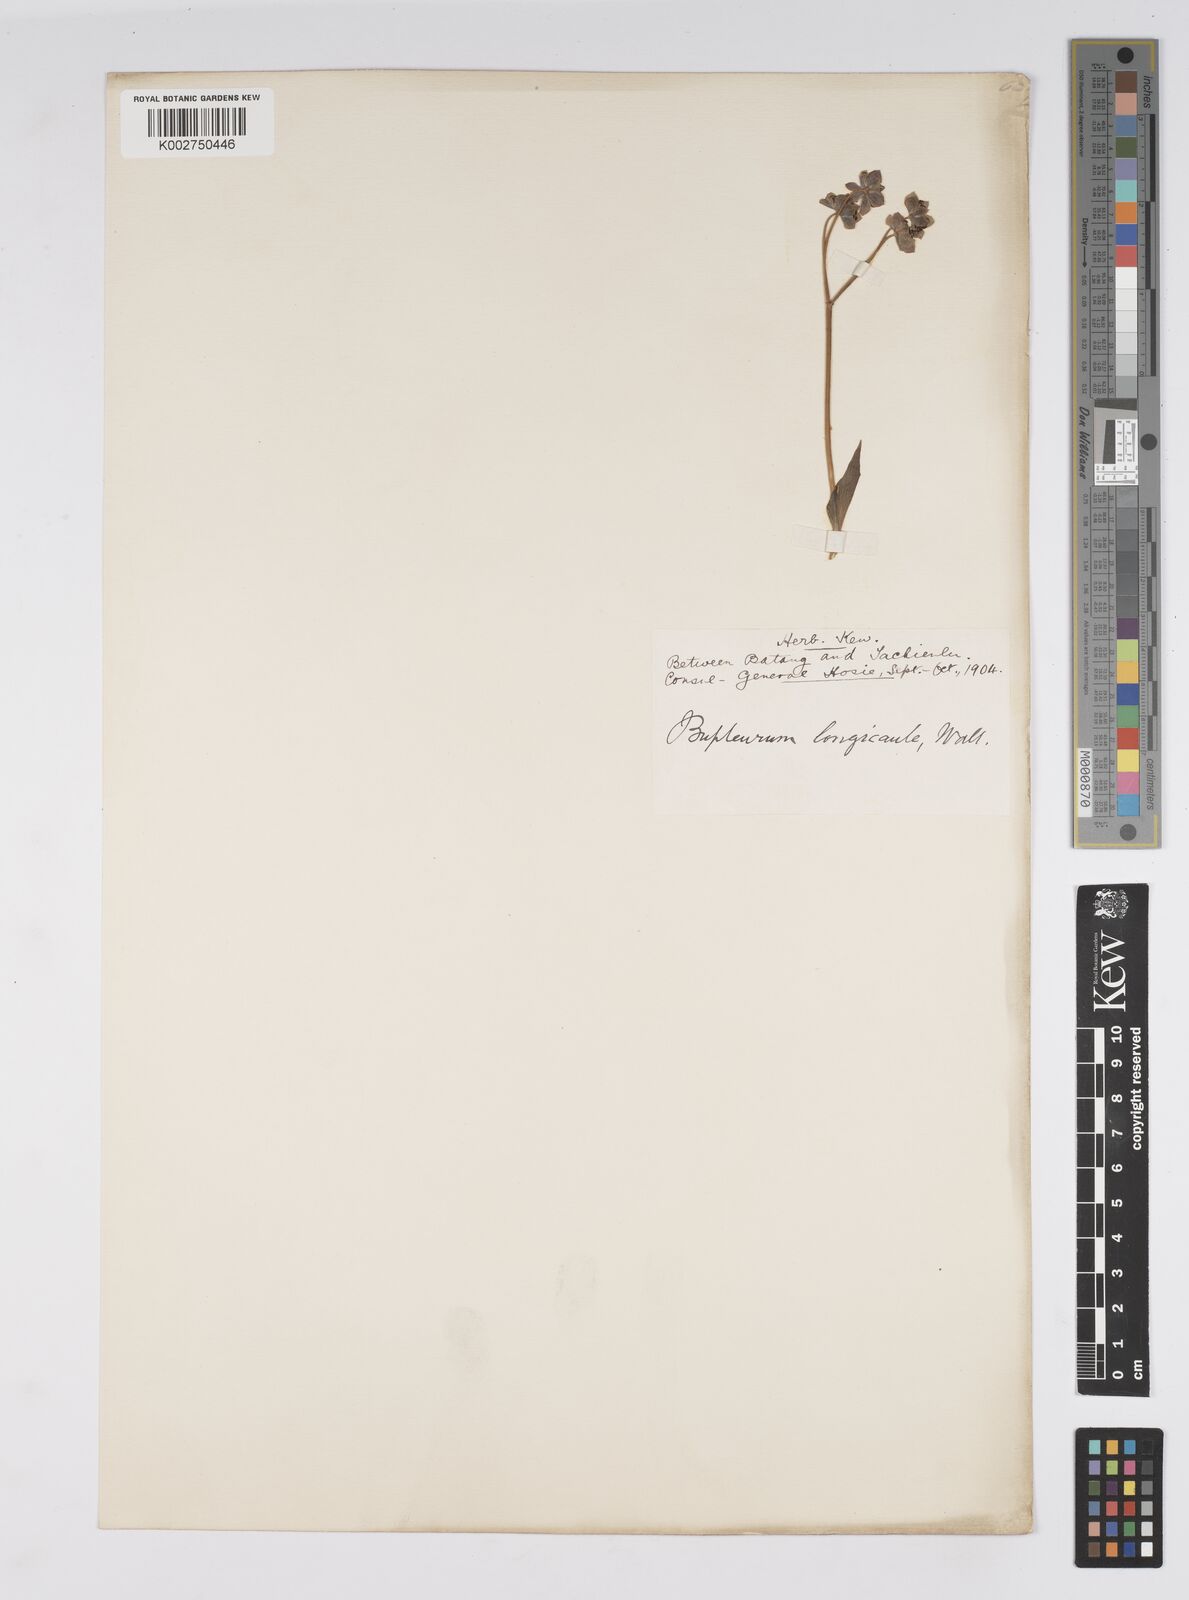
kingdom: Plantae
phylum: Tracheophyta
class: Magnoliopsida
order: Apiales
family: Apiaceae
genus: Bupleurum
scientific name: Bupleurum longicaule
